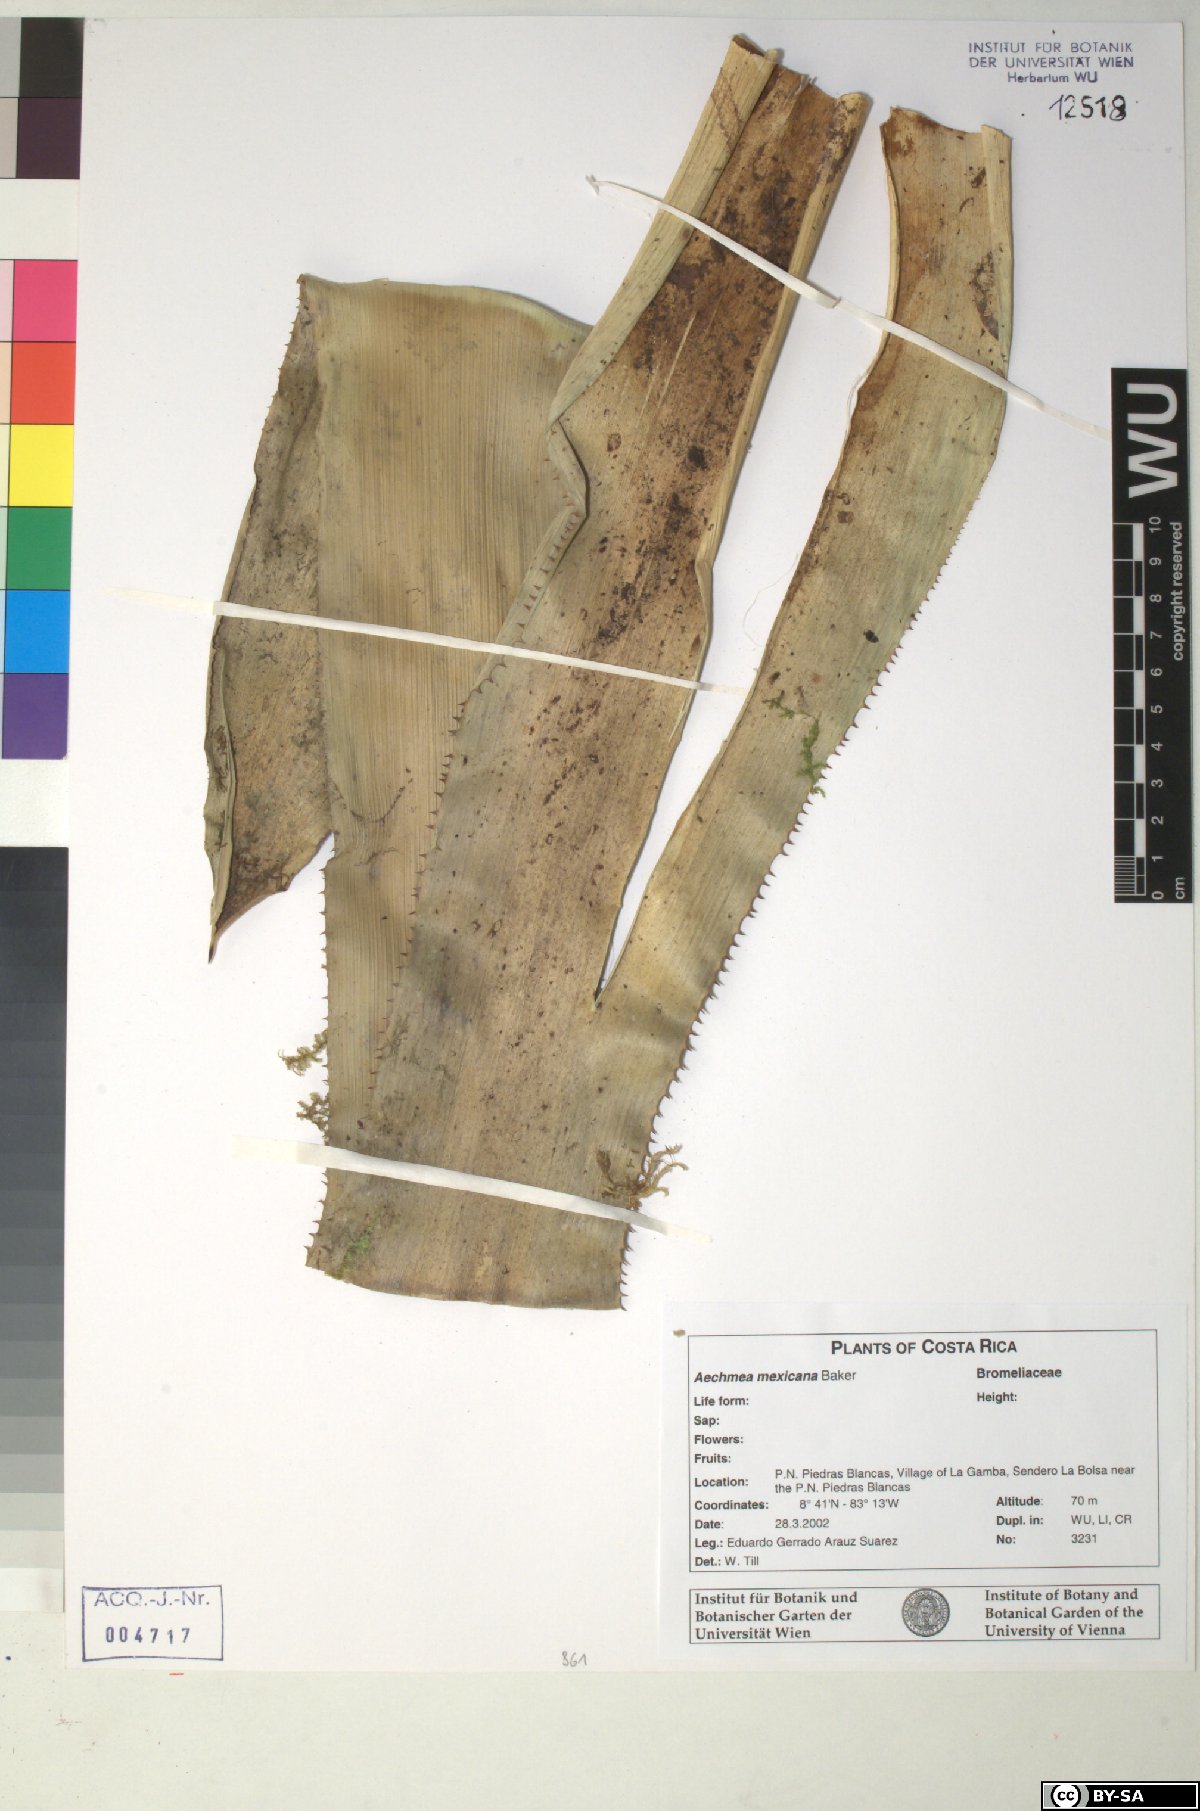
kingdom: Plantae
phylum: Tracheophyta
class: Liliopsida
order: Poales
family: Bromeliaceae
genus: Aechmea
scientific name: Aechmea mexicana
